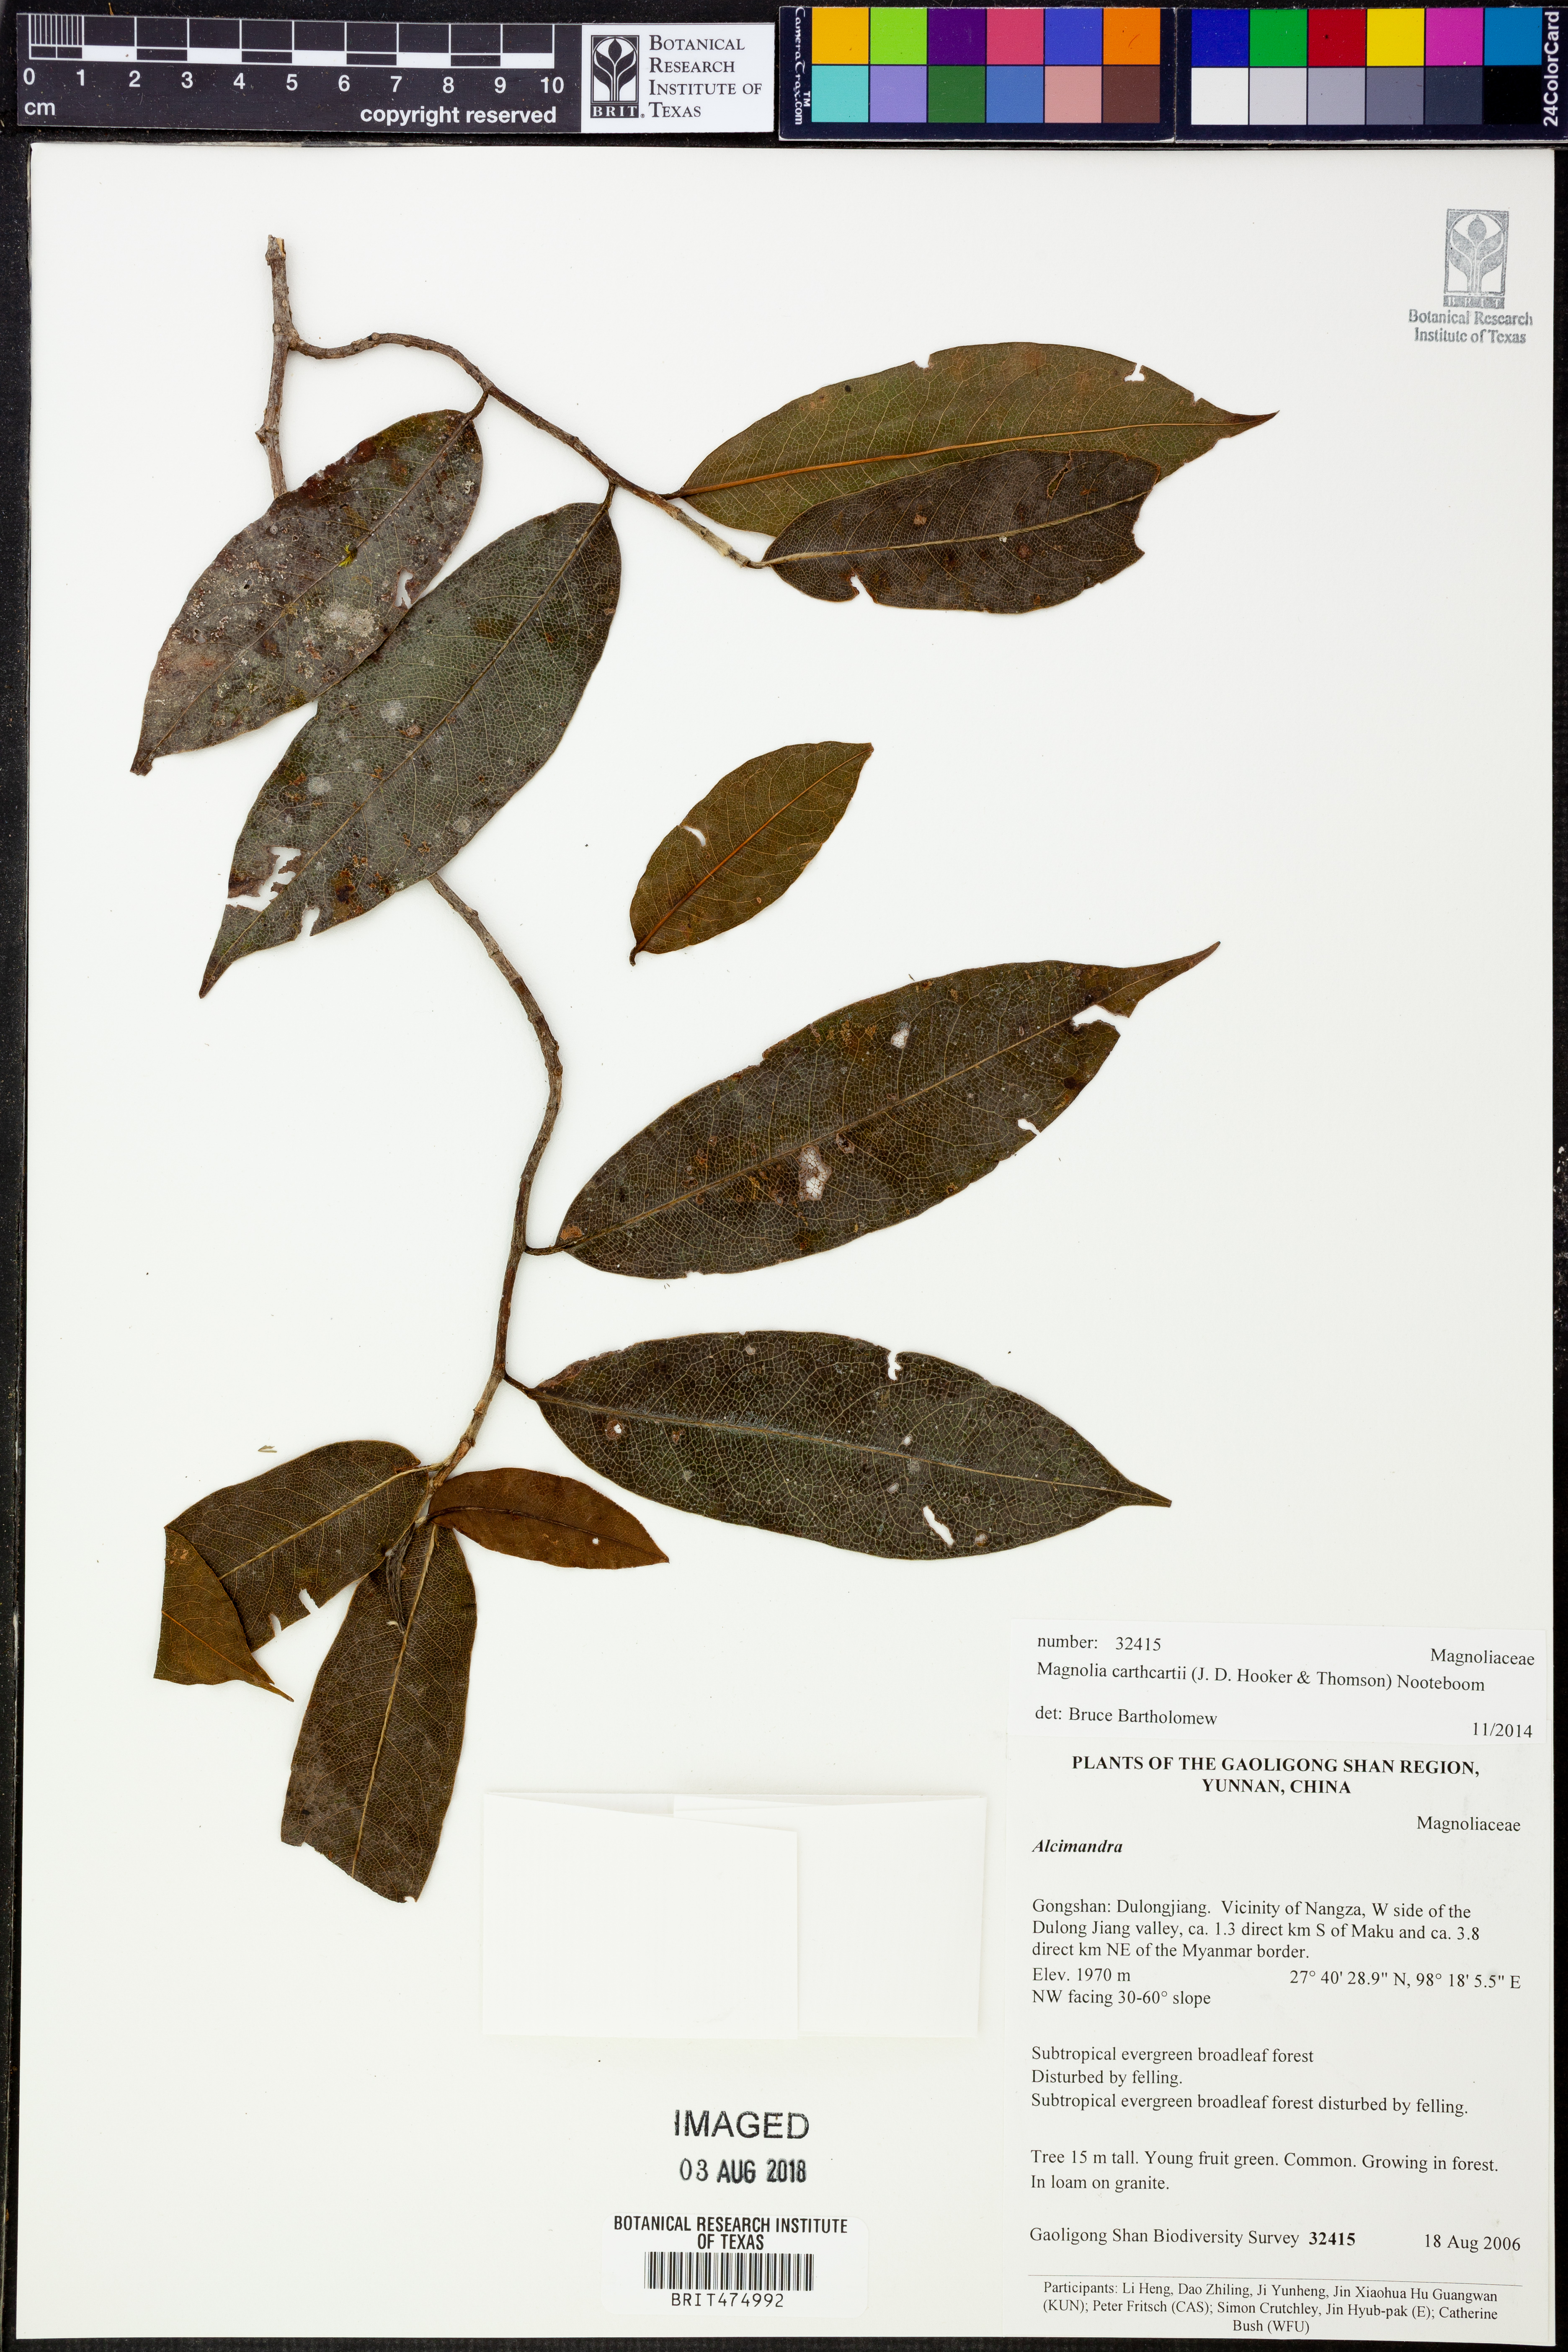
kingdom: Plantae
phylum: Tracheophyta
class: Magnoliopsida
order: Magnoliales
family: Magnoliaceae
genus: Magnolia
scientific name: Magnolia cathcartii
